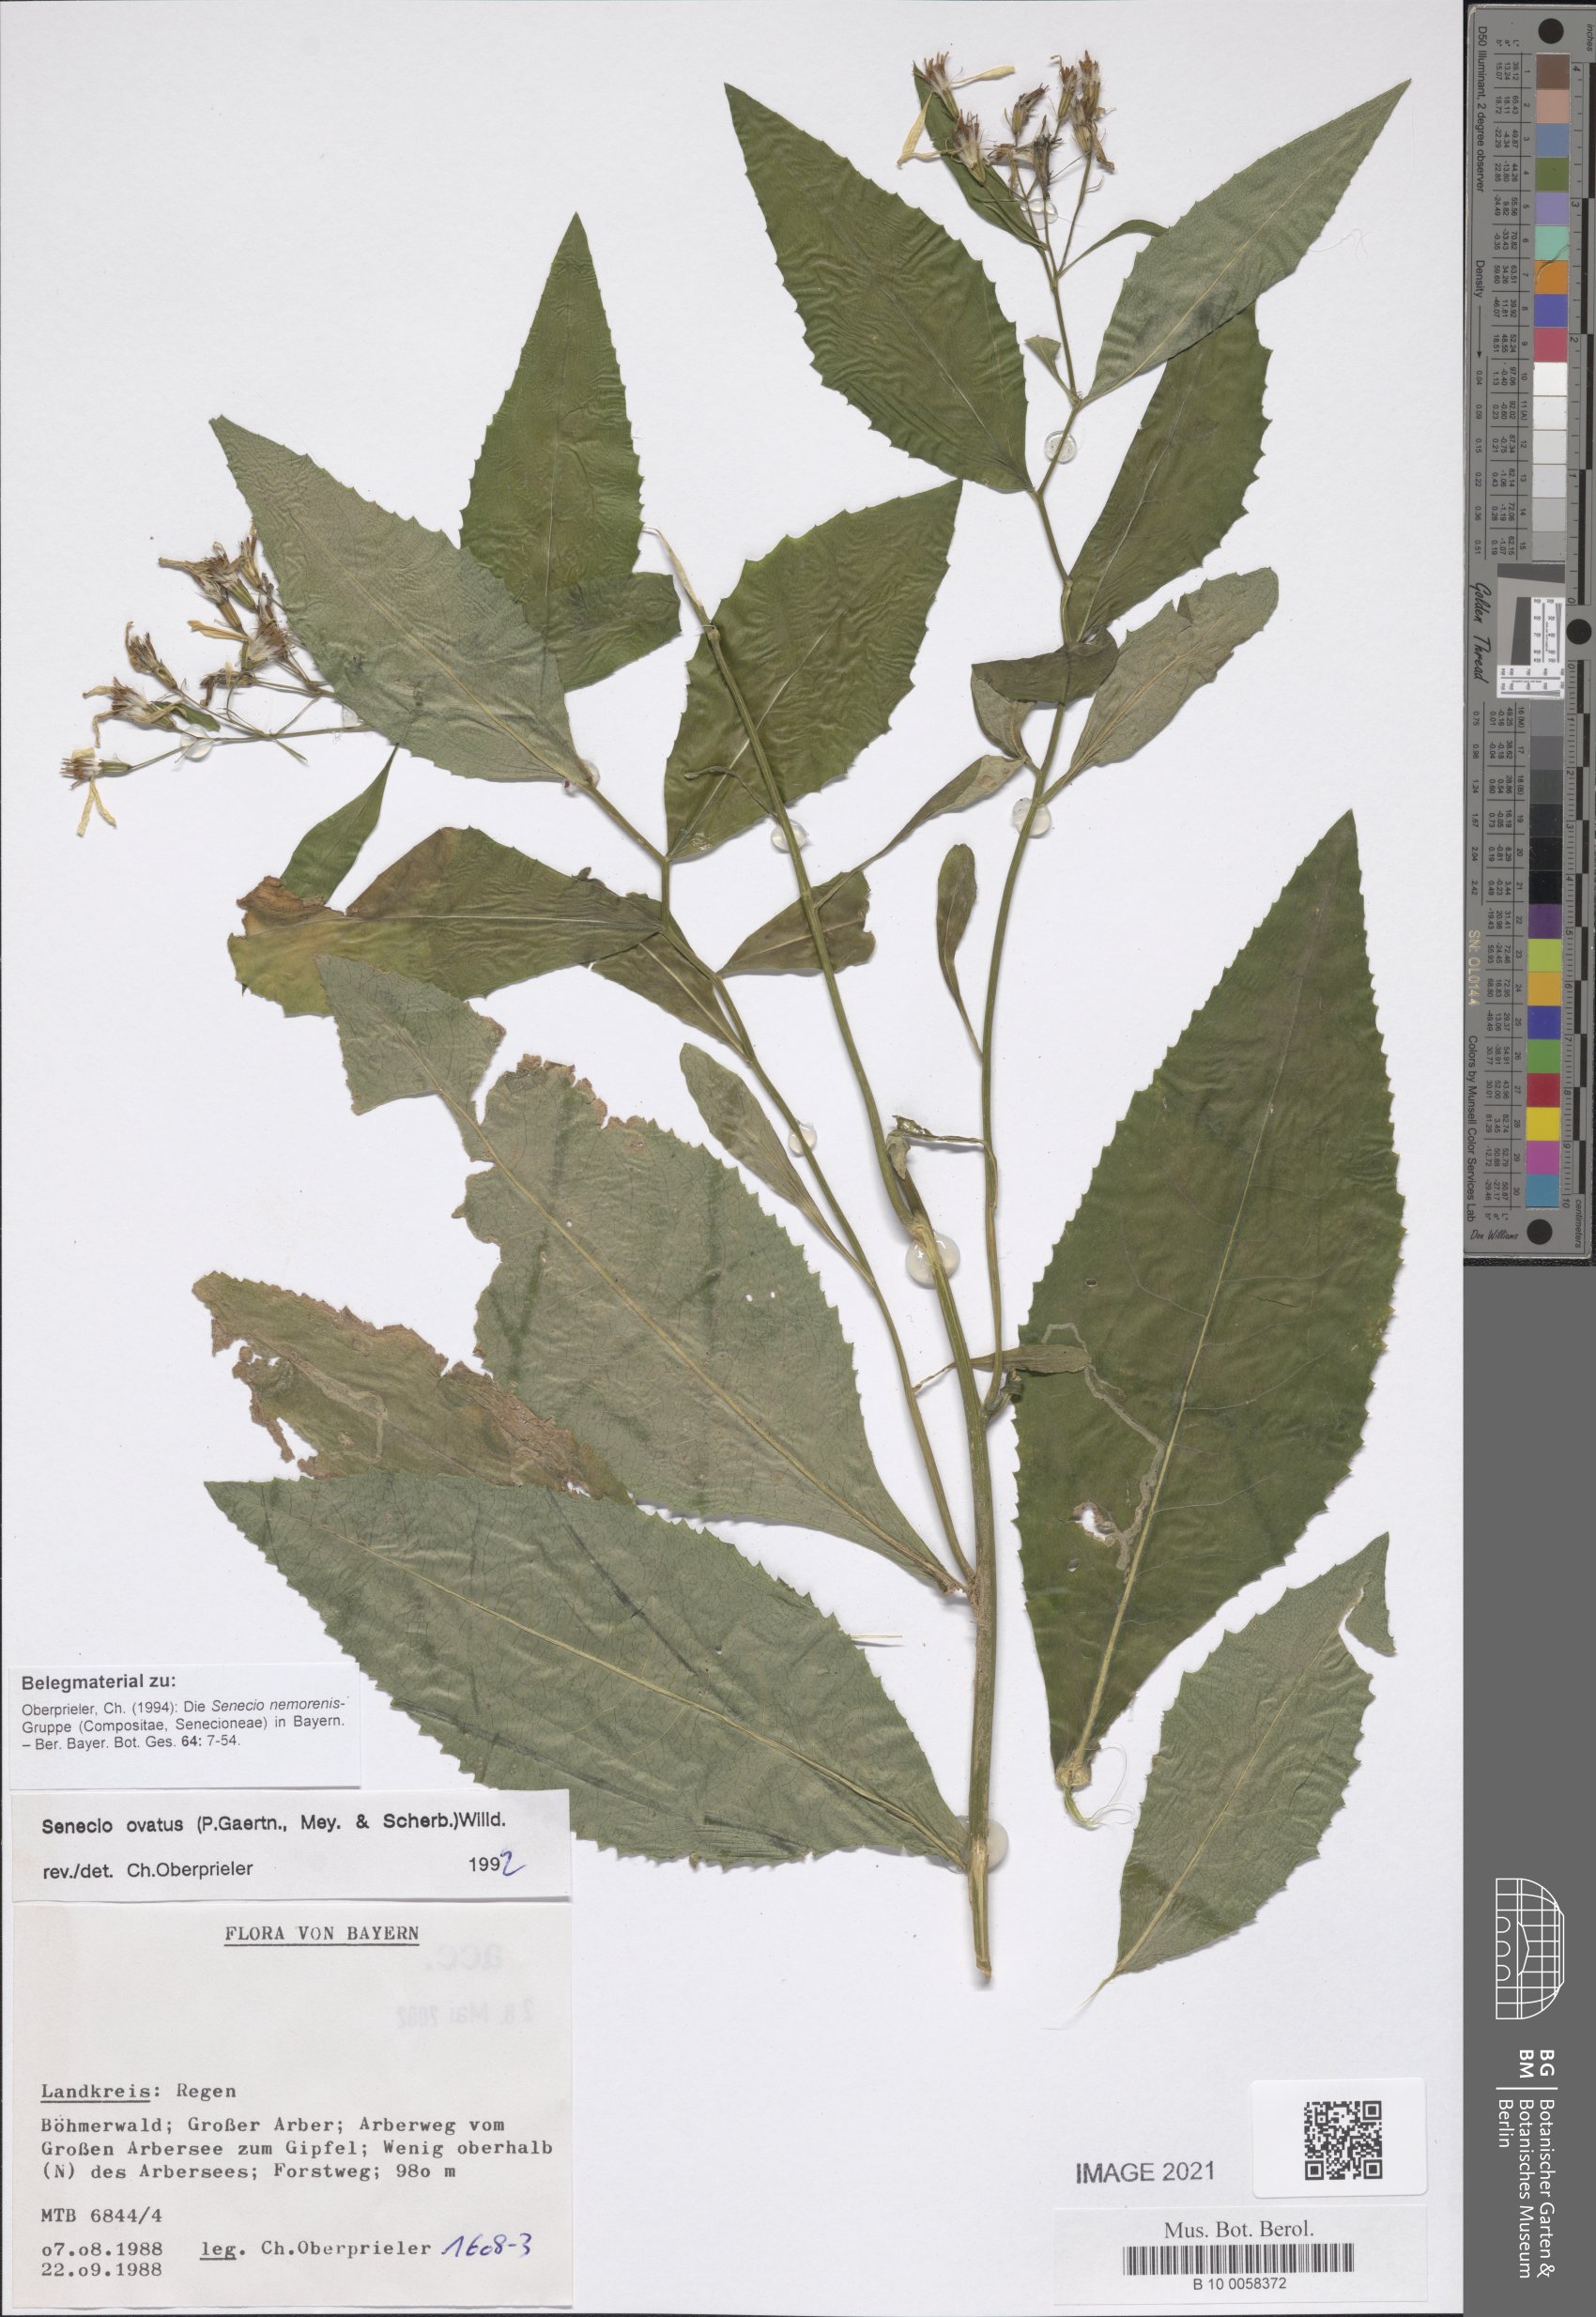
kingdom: Plantae
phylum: Tracheophyta
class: Magnoliopsida
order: Asterales
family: Asteraceae
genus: Senecio
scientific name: Senecio ovatus
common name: Wood ragwort
